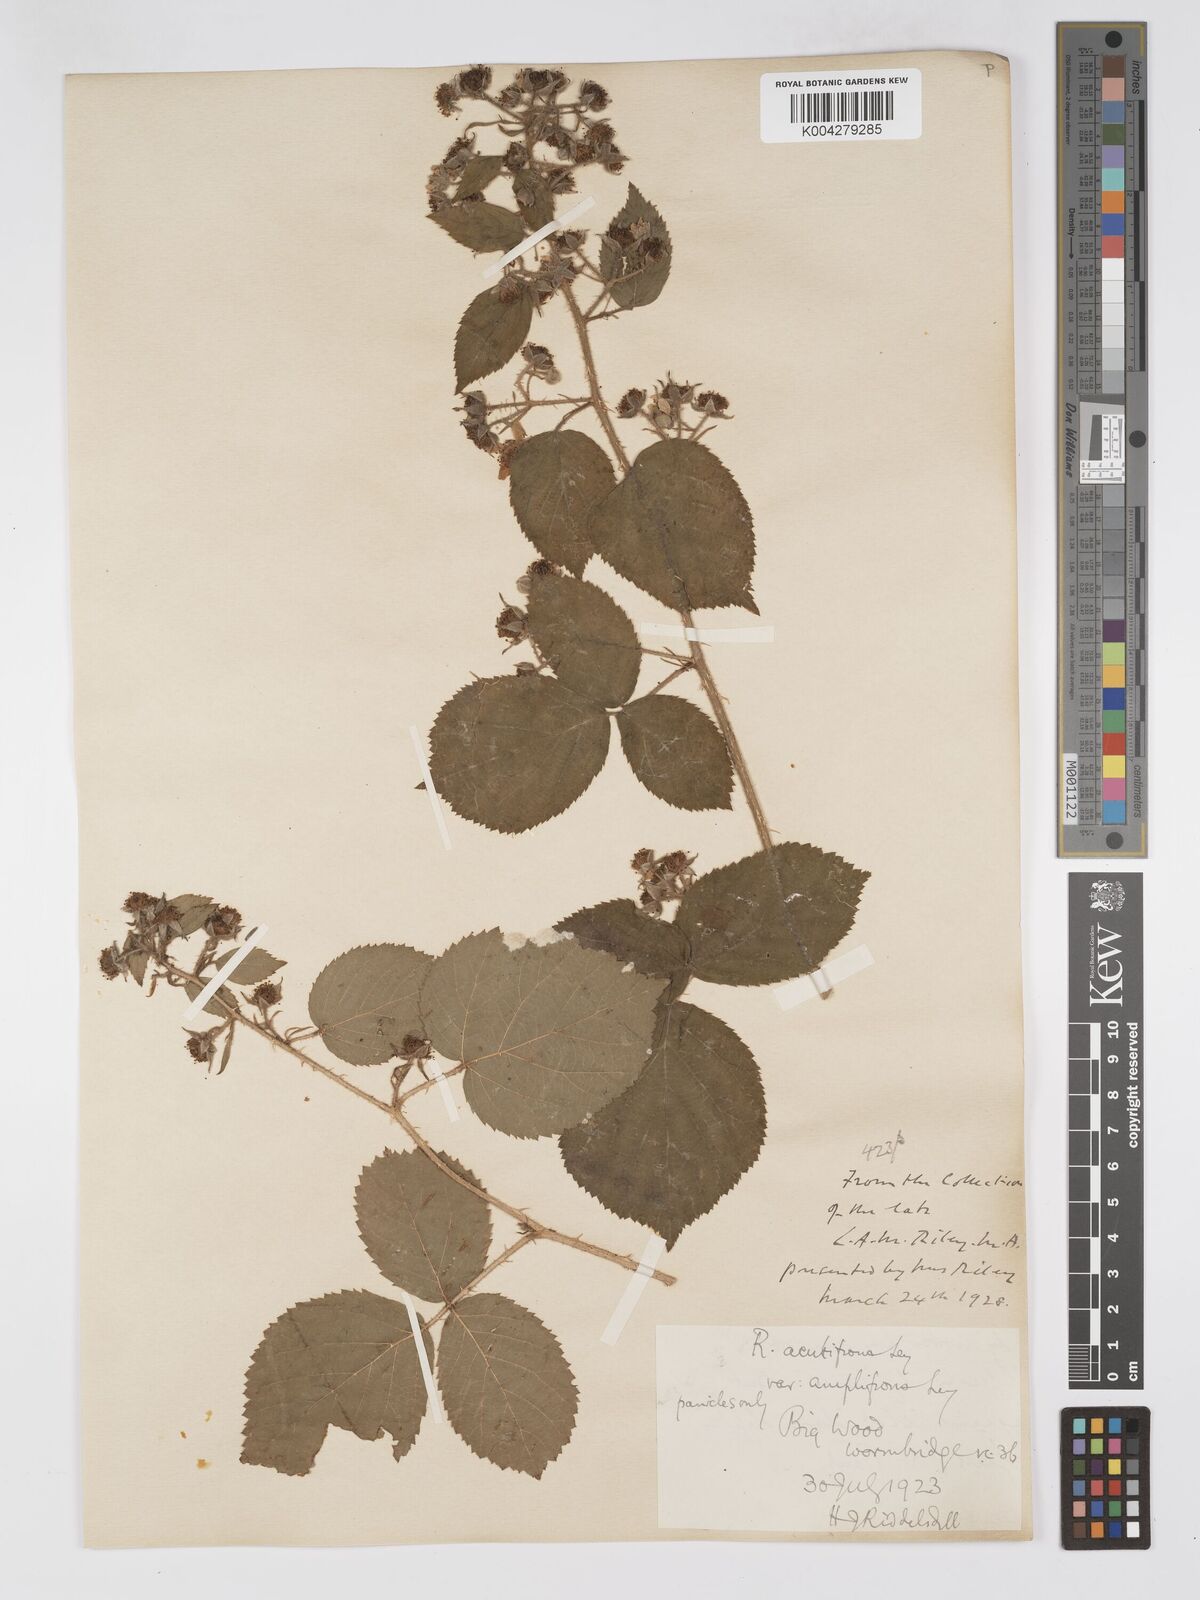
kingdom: Plantae
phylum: Tracheophyta
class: Magnoliopsida
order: Rosales
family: Rosaceae
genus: Rubus
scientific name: Rubus laxatifrons
